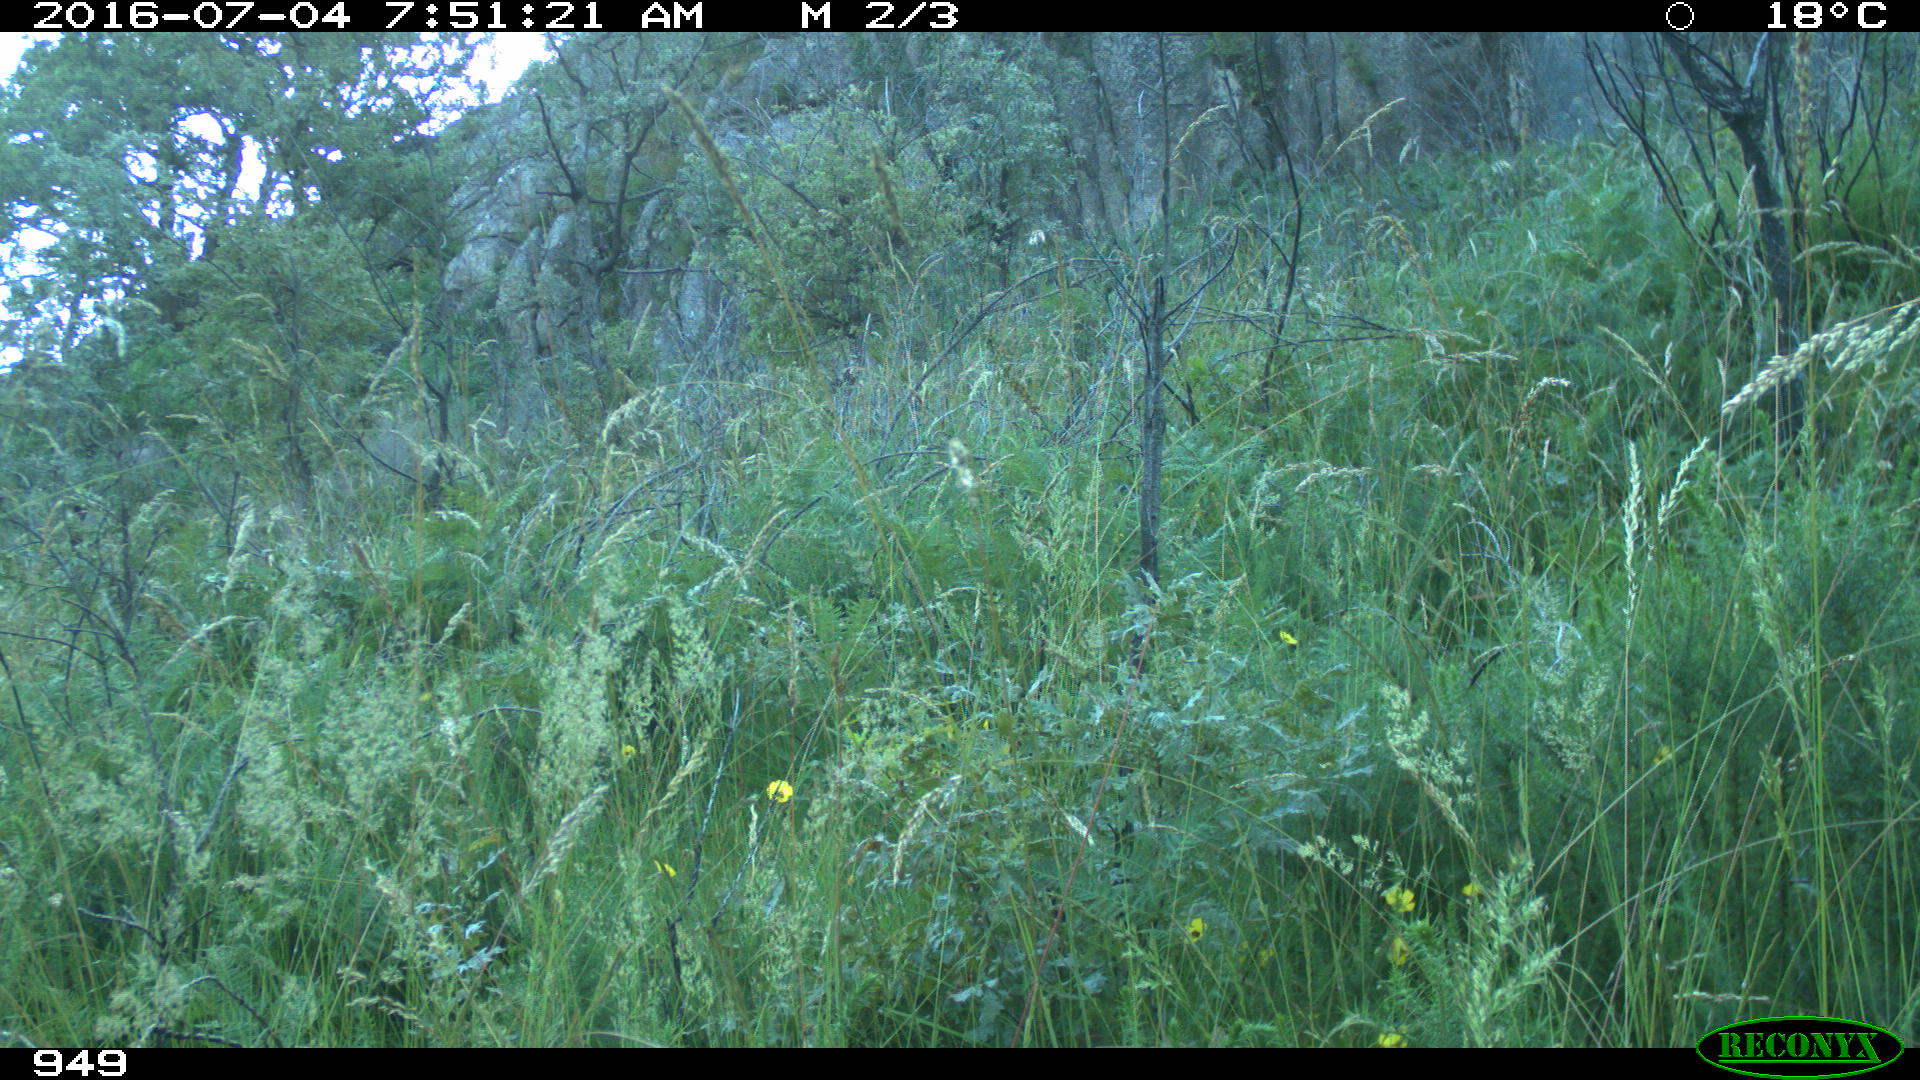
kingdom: Animalia
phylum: Chordata
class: Mammalia
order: Artiodactyla
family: Cervidae
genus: Capreolus
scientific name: Capreolus capreolus
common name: Western roe deer
